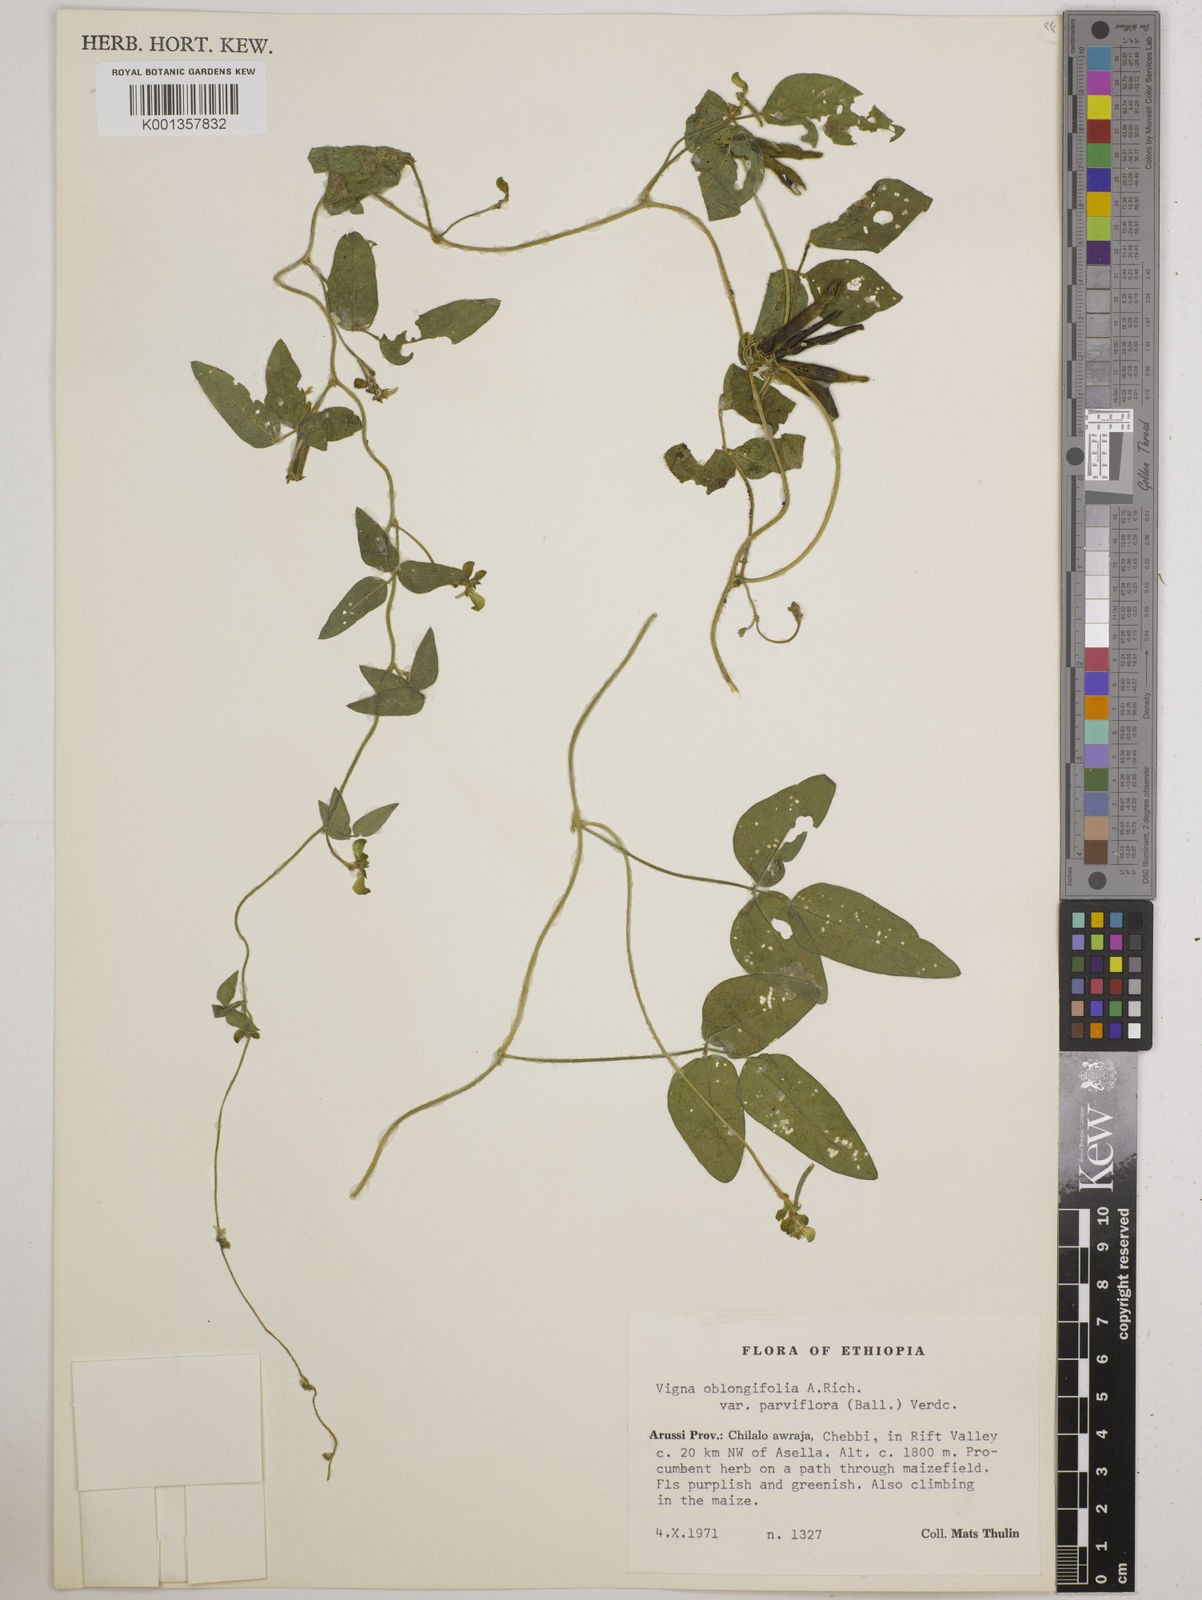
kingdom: Plantae
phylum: Tracheophyta
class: Magnoliopsida
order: Fabales
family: Fabaceae
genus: Vigna
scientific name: Vigna
